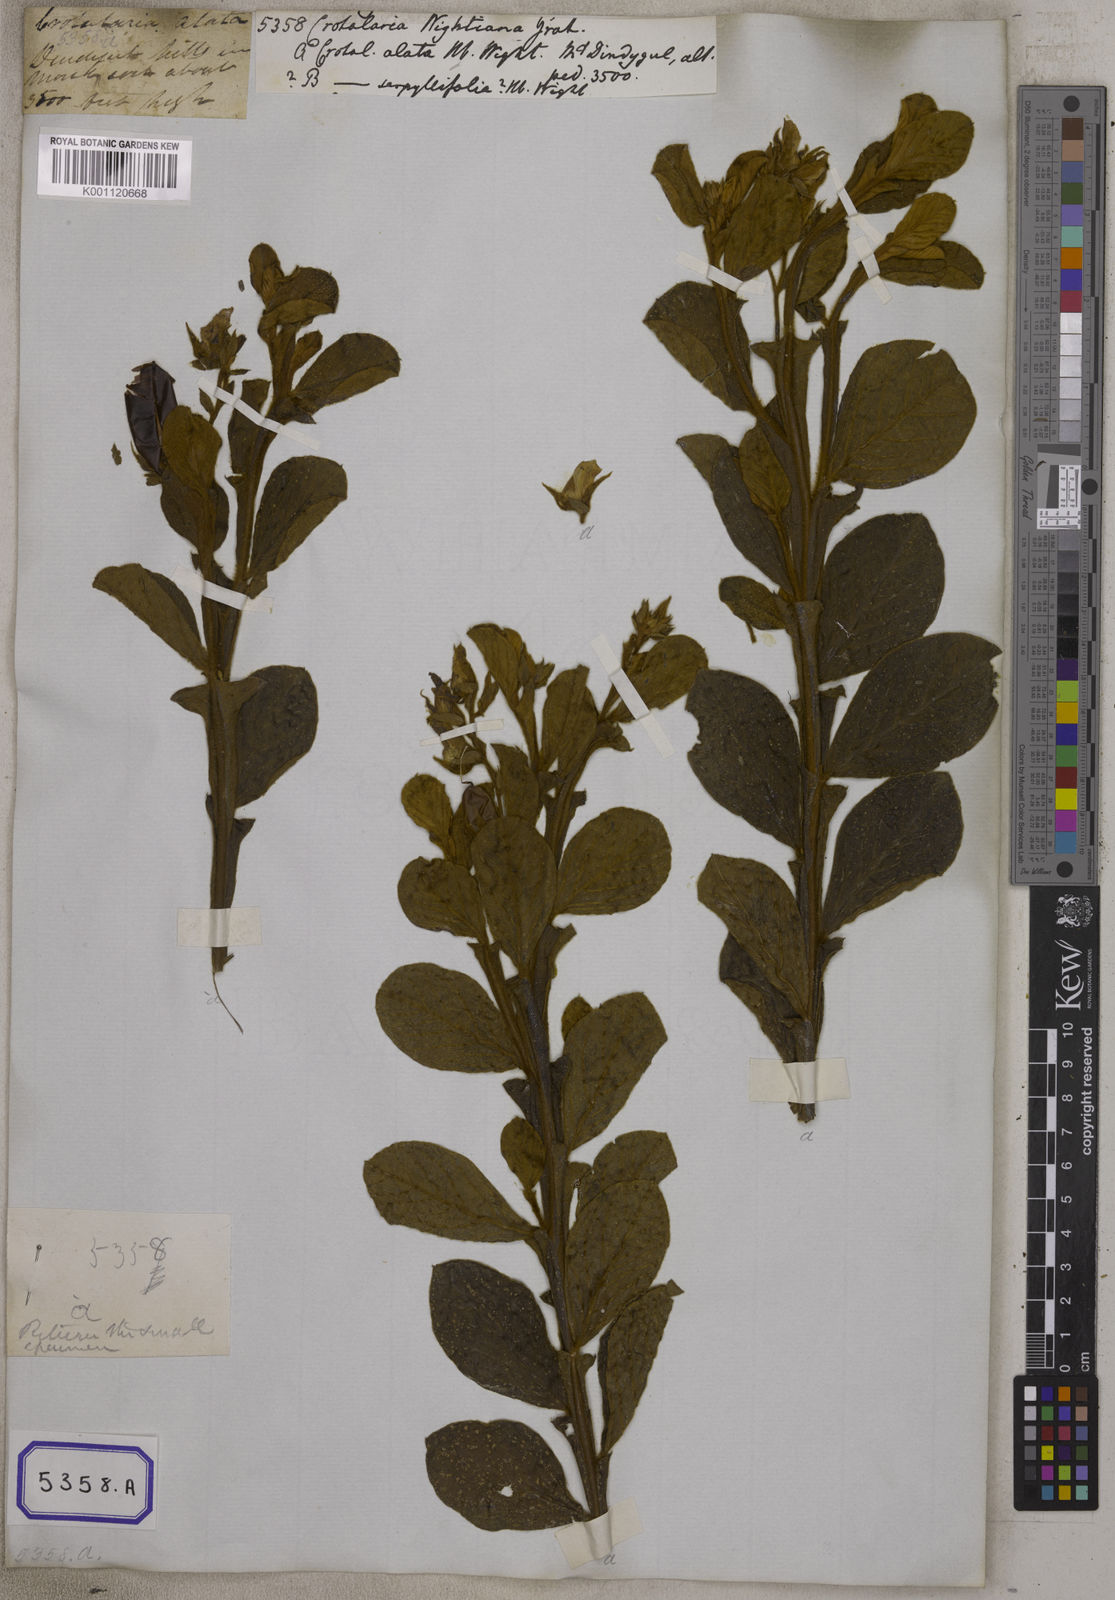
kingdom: Plantae
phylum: Tracheophyta
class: Magnoliopsida
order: Fabales
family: Fabaceae
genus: Crotalaria
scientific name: Crotalaria
